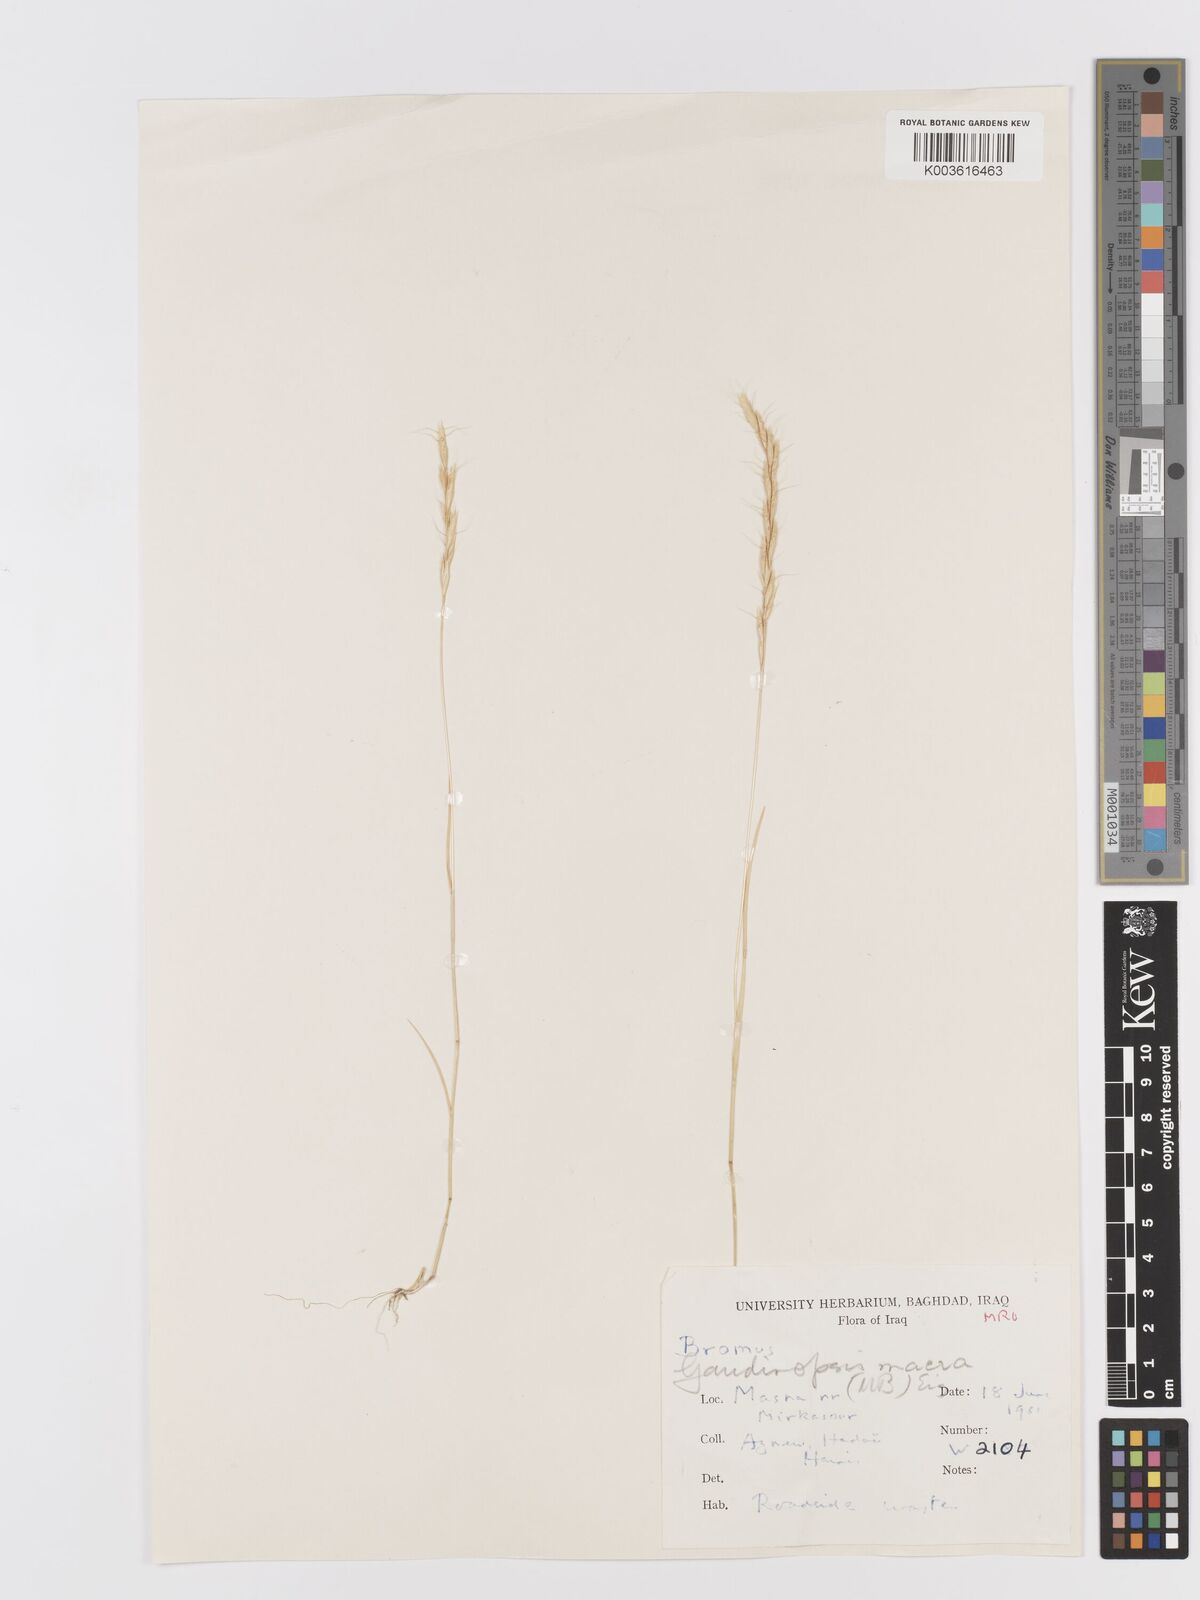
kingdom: Plantae
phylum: Tracheophyta
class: Liliopsida
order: Poales
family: Poaceae
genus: Ventenata
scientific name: Ventenata macra
